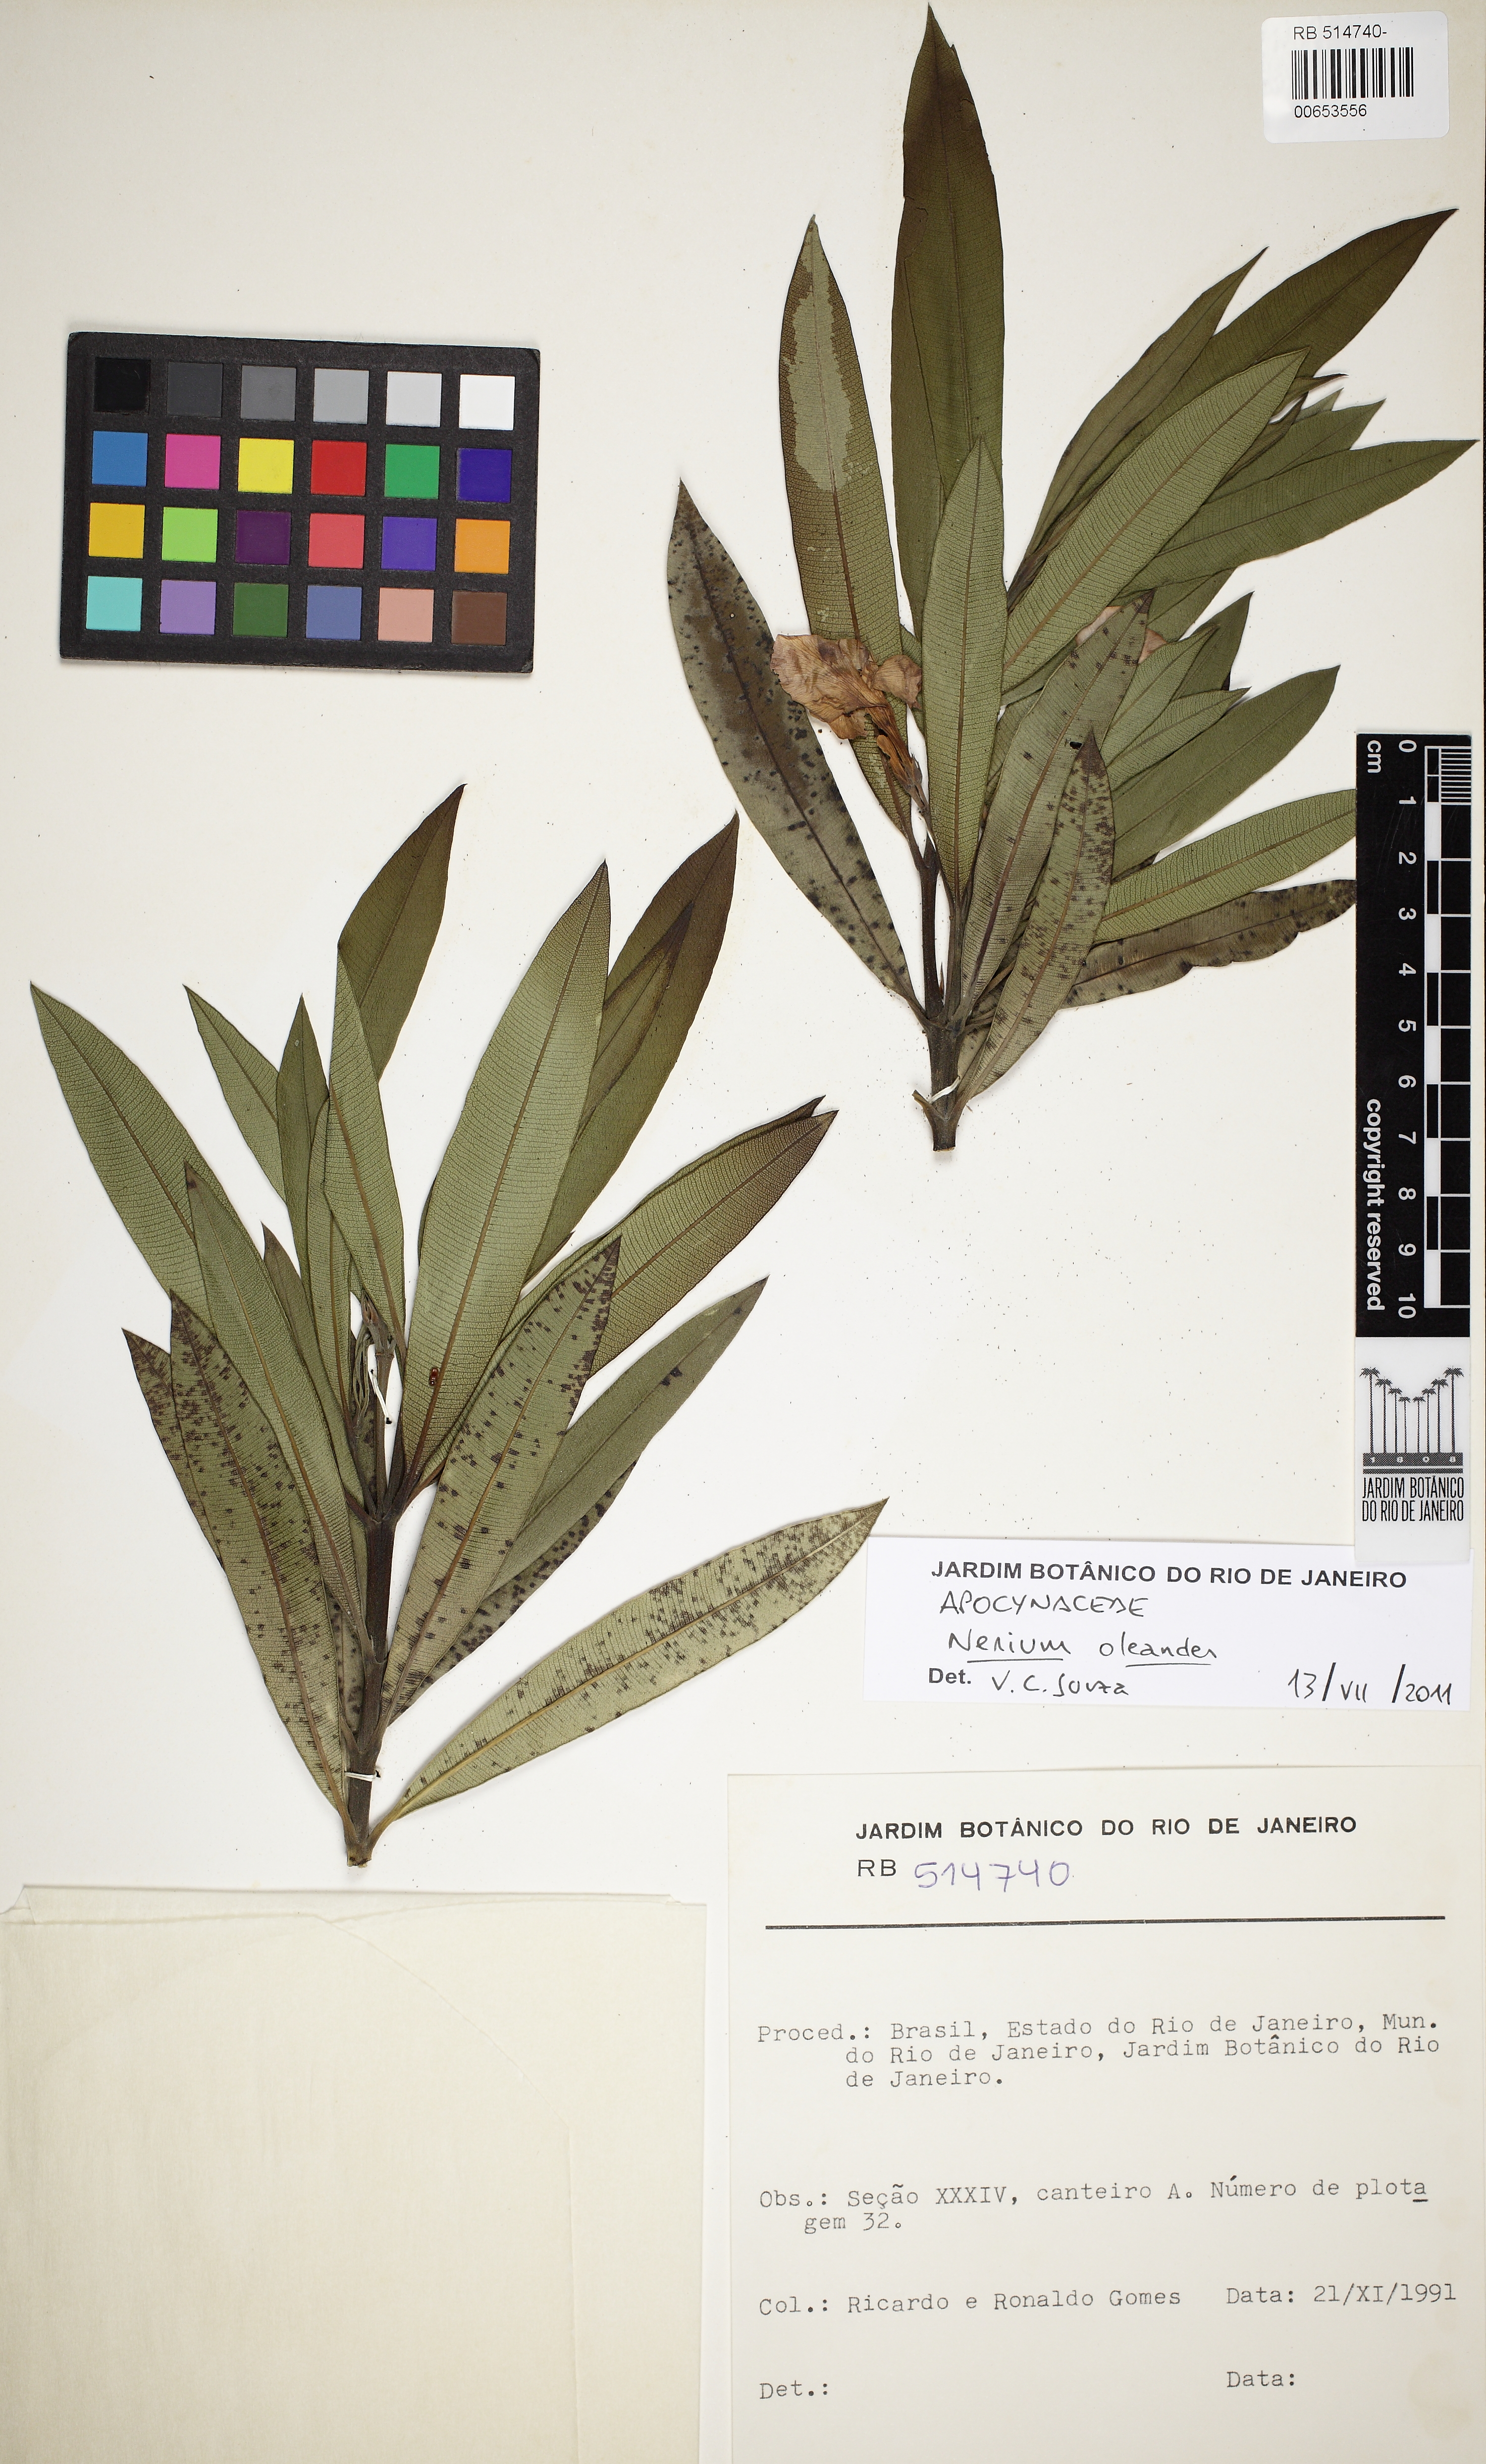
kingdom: Plantae
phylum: Tracheophyta
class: Magnoliopsida
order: Gentianales
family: Apocynaceae
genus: Nerium
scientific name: Nerium oleander
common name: Oleander
